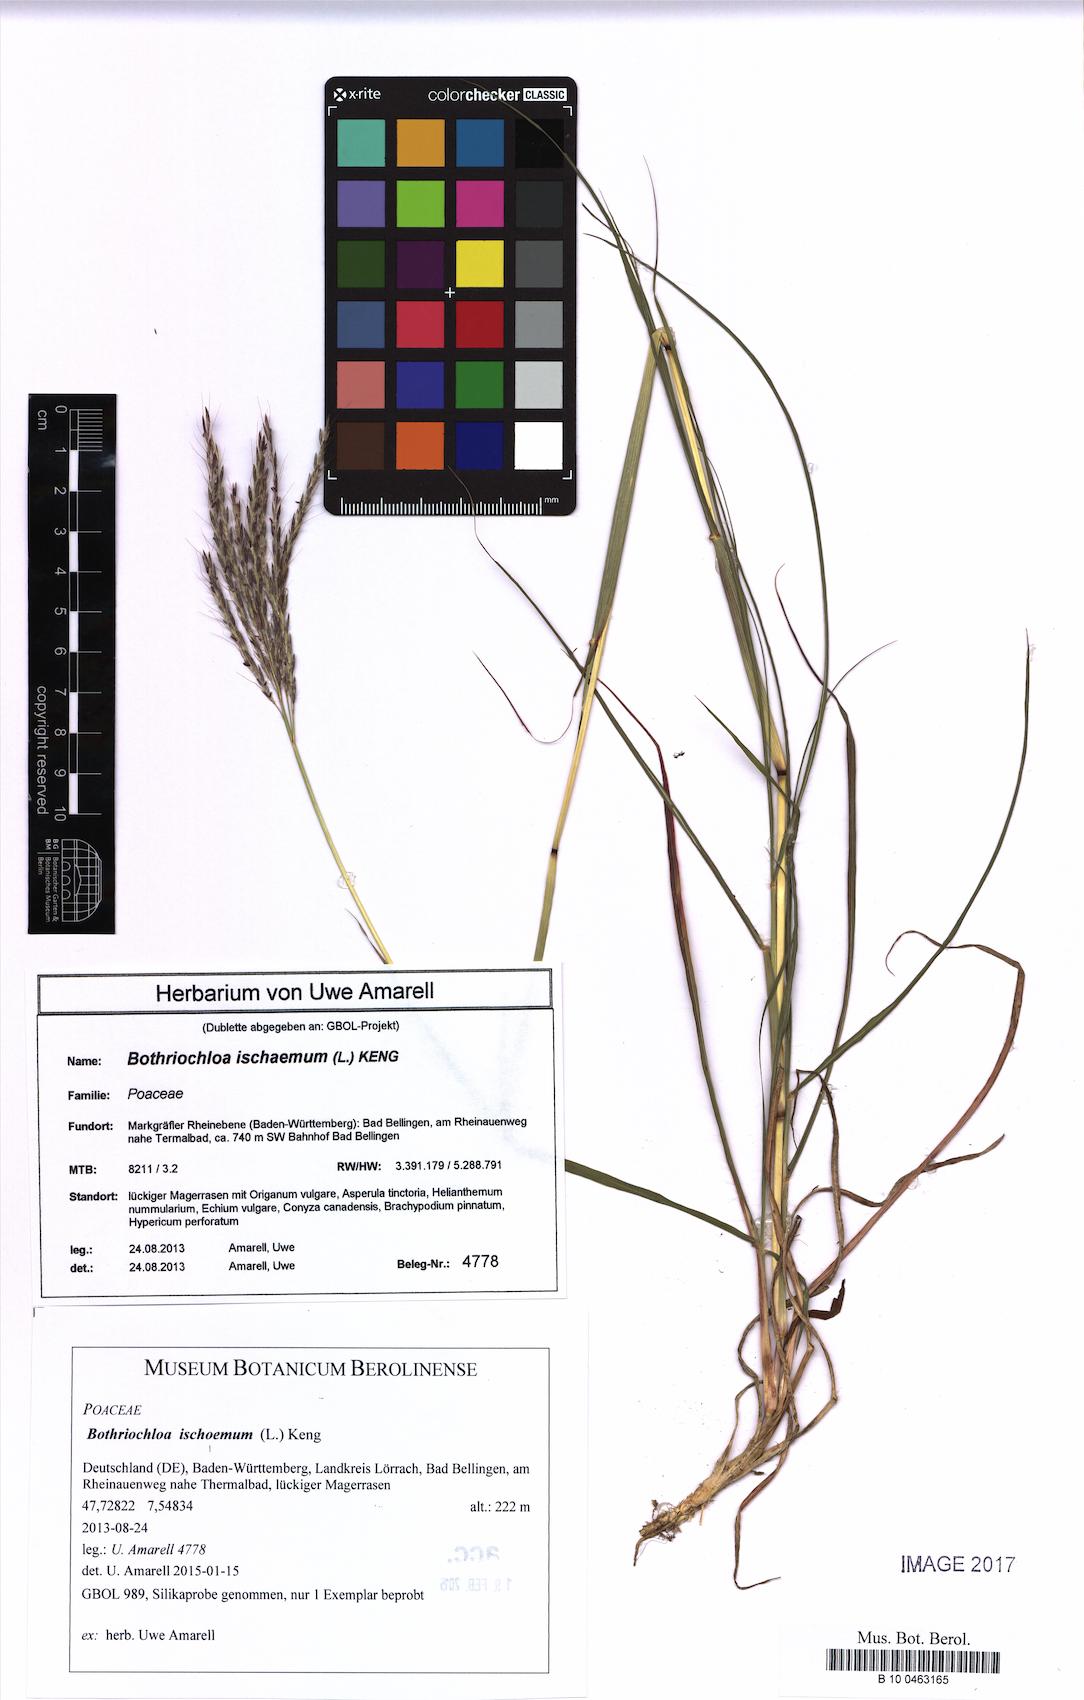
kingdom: Plantae
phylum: Tracheophyta
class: Liliopsida
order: Poales
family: Poaceae
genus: Bothriochloa
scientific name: Bothriochloa ischaemum
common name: Yellow bluestem
